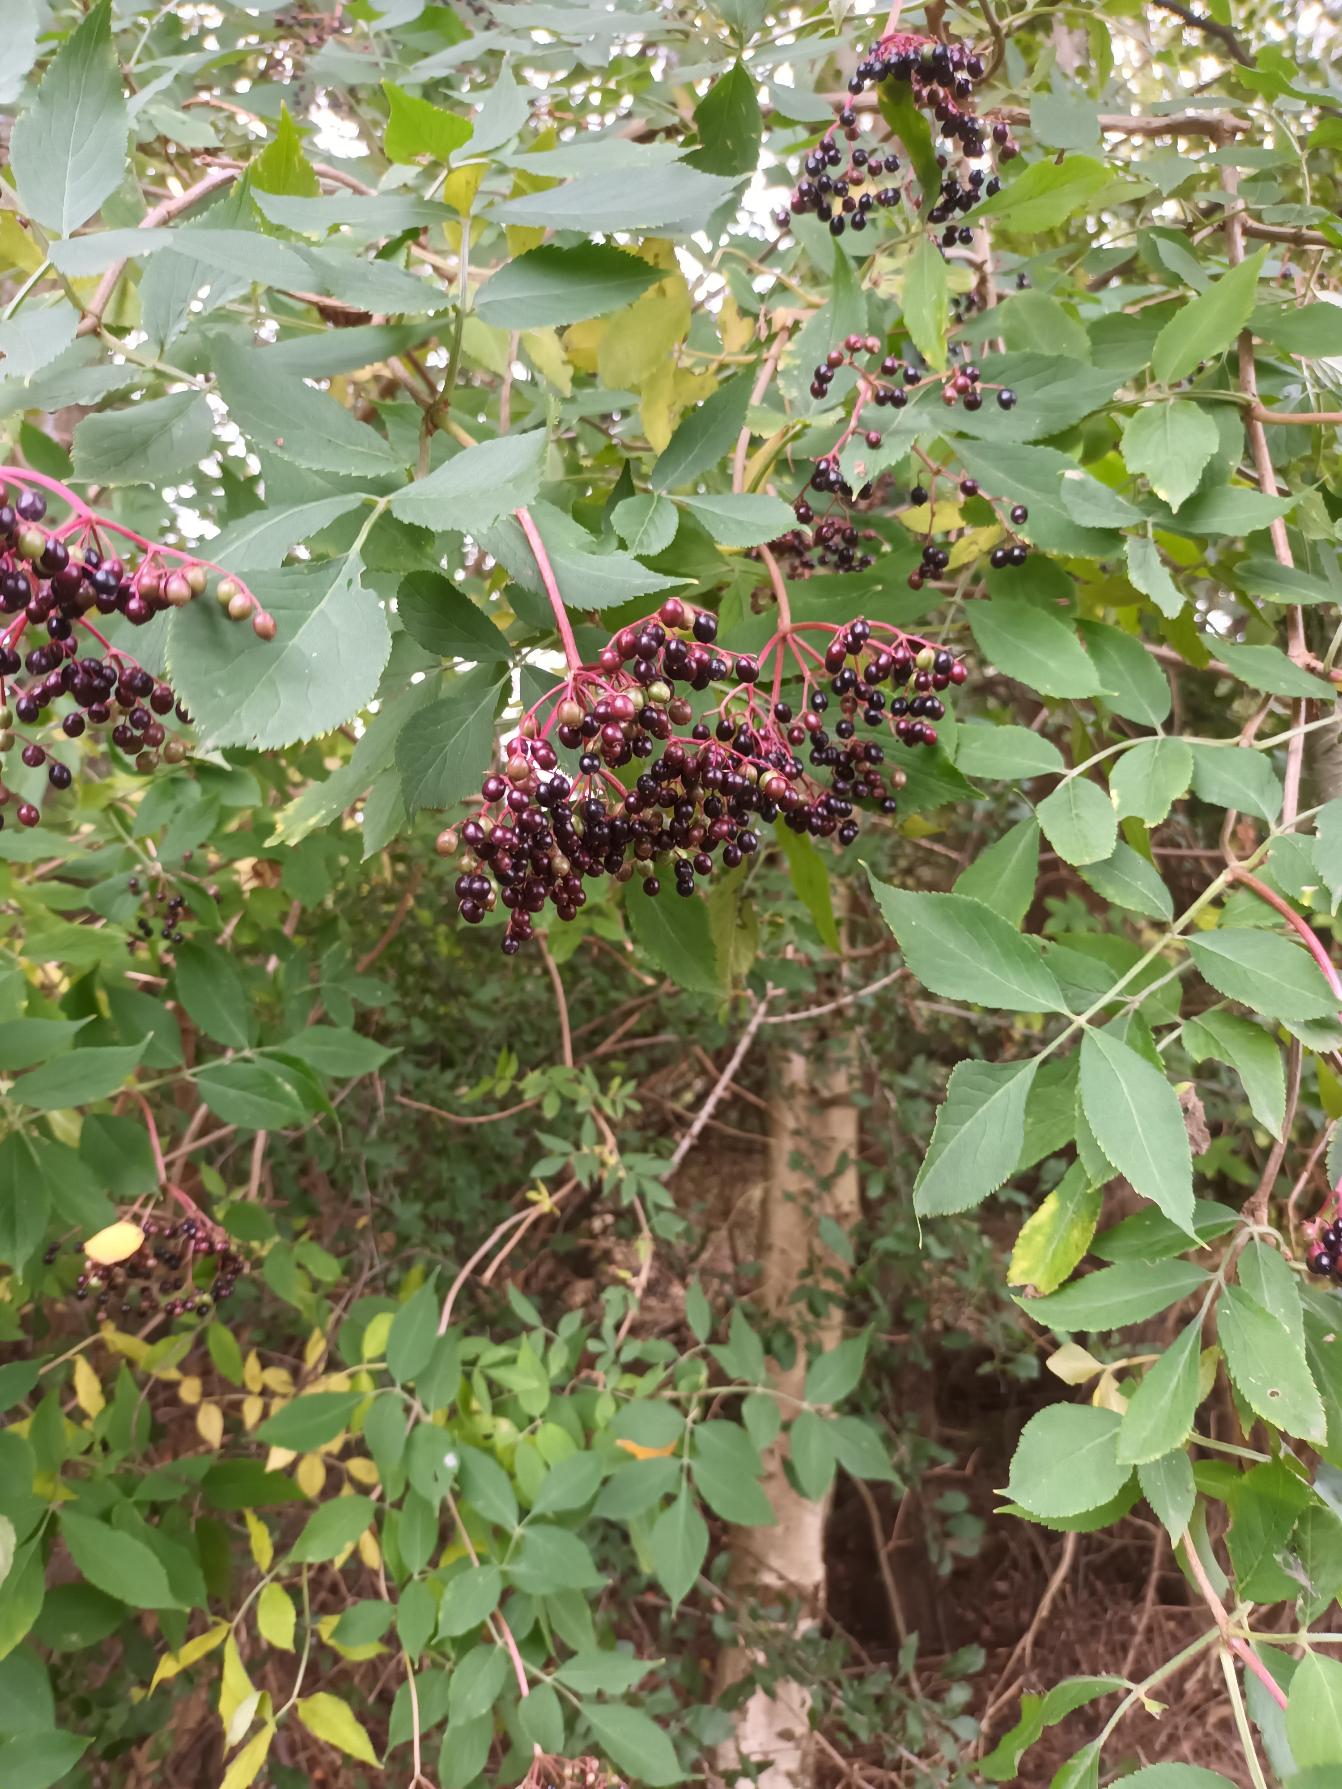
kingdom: Plantae
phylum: Tracheophyta
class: Magnoliopsida
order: Dipsacales
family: Viburnaceae
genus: Sambucus
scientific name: Sambucus nigra
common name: Almindelig hyld
